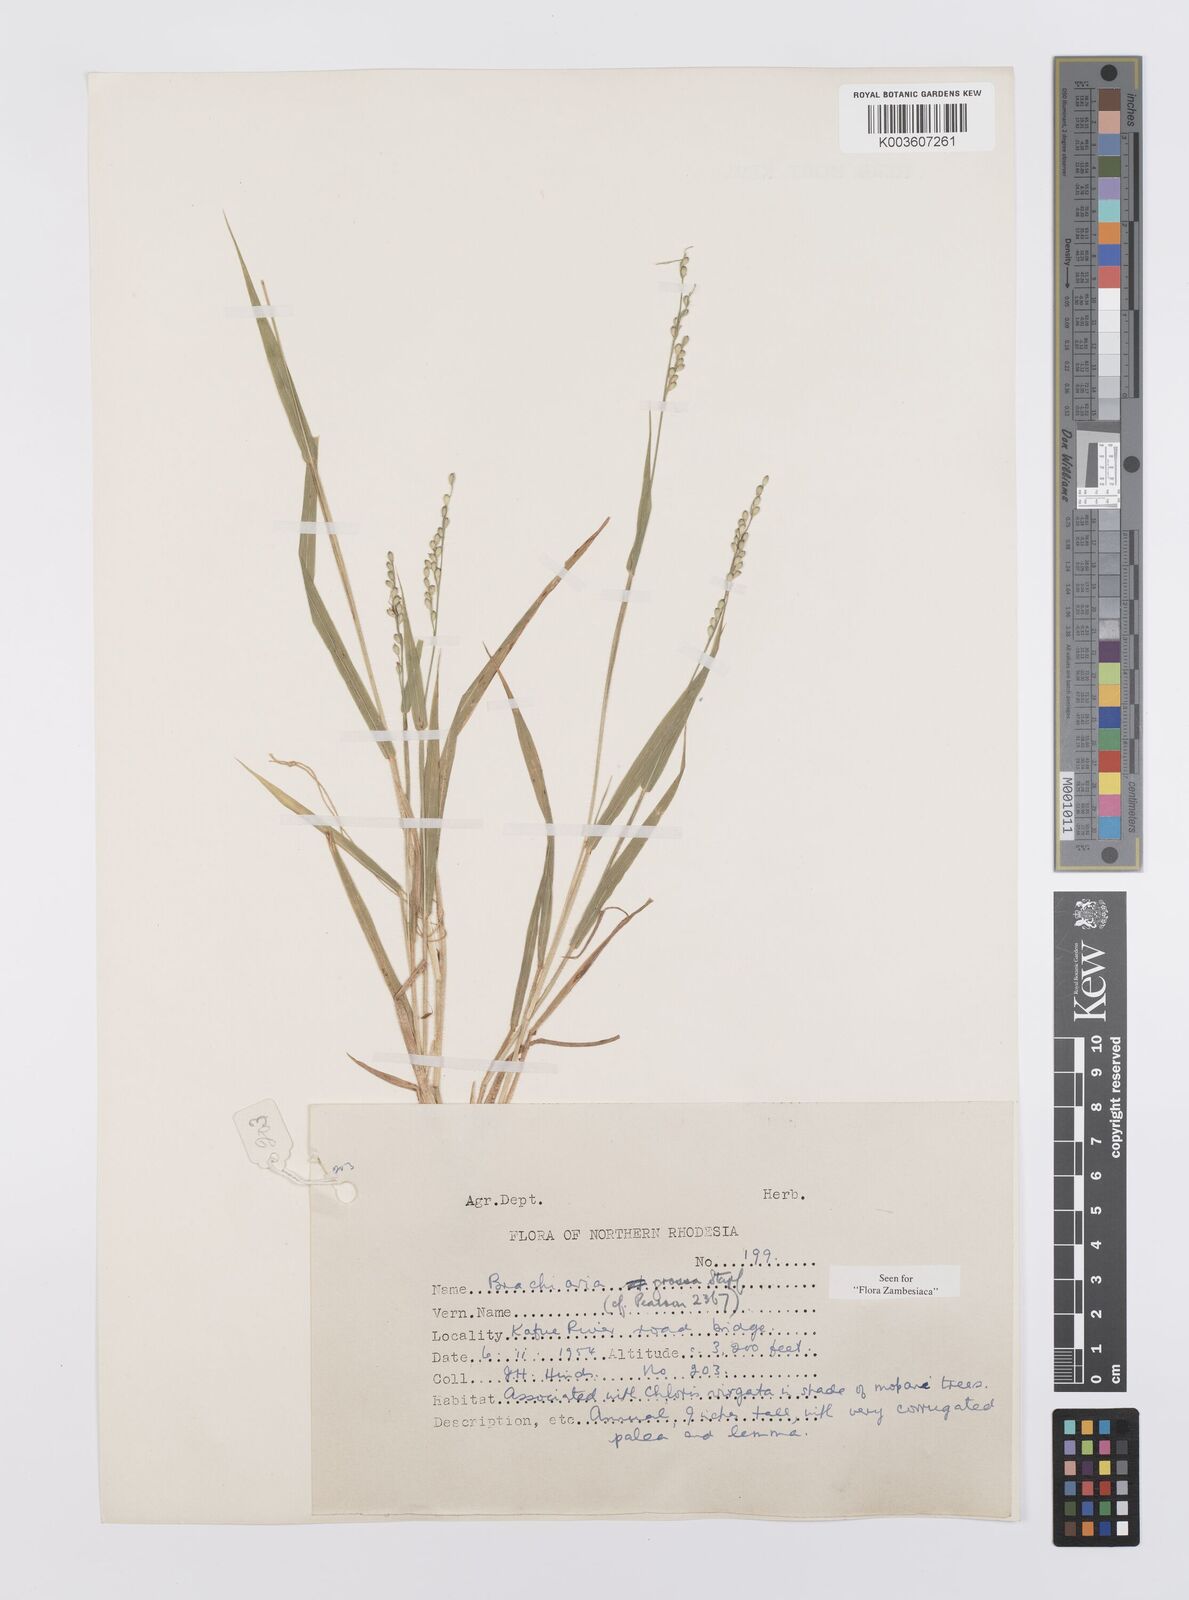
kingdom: Plantae
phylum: Tracheophyta
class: Liliopsida
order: Poales
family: Poaceae
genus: Urochloa
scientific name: Urochloa Brachiaria grossa
